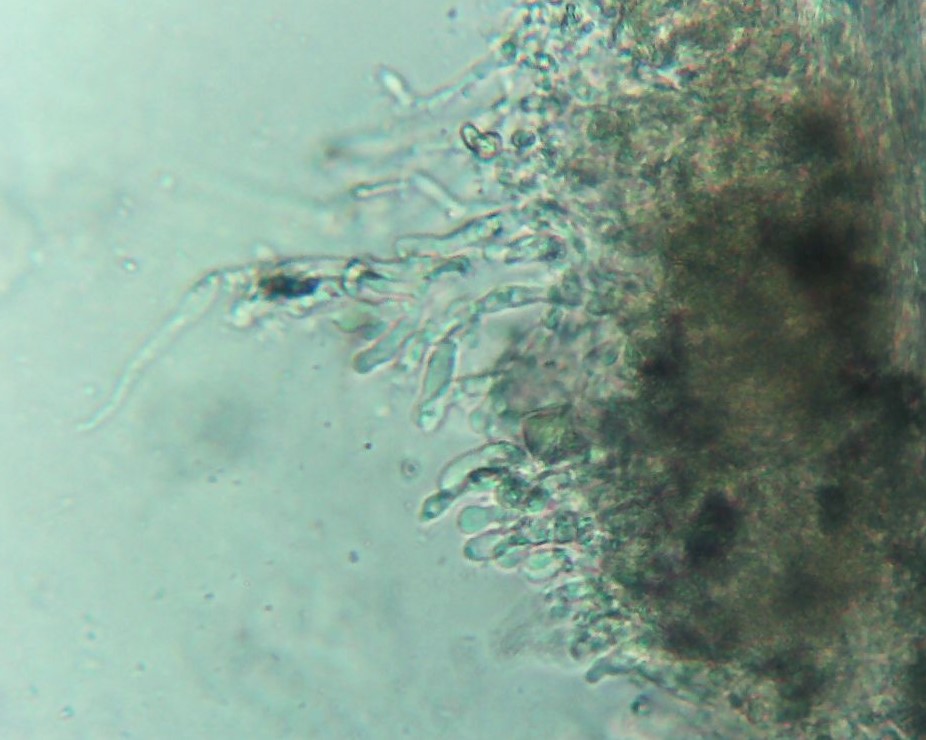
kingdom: Fungi
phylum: Basidiomycota
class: Agaricomycetes
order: Hymenochaetales
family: Schizoporaceae
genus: Xylodon
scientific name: Xylodon subtropicus
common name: labyrint-tandsvamp
